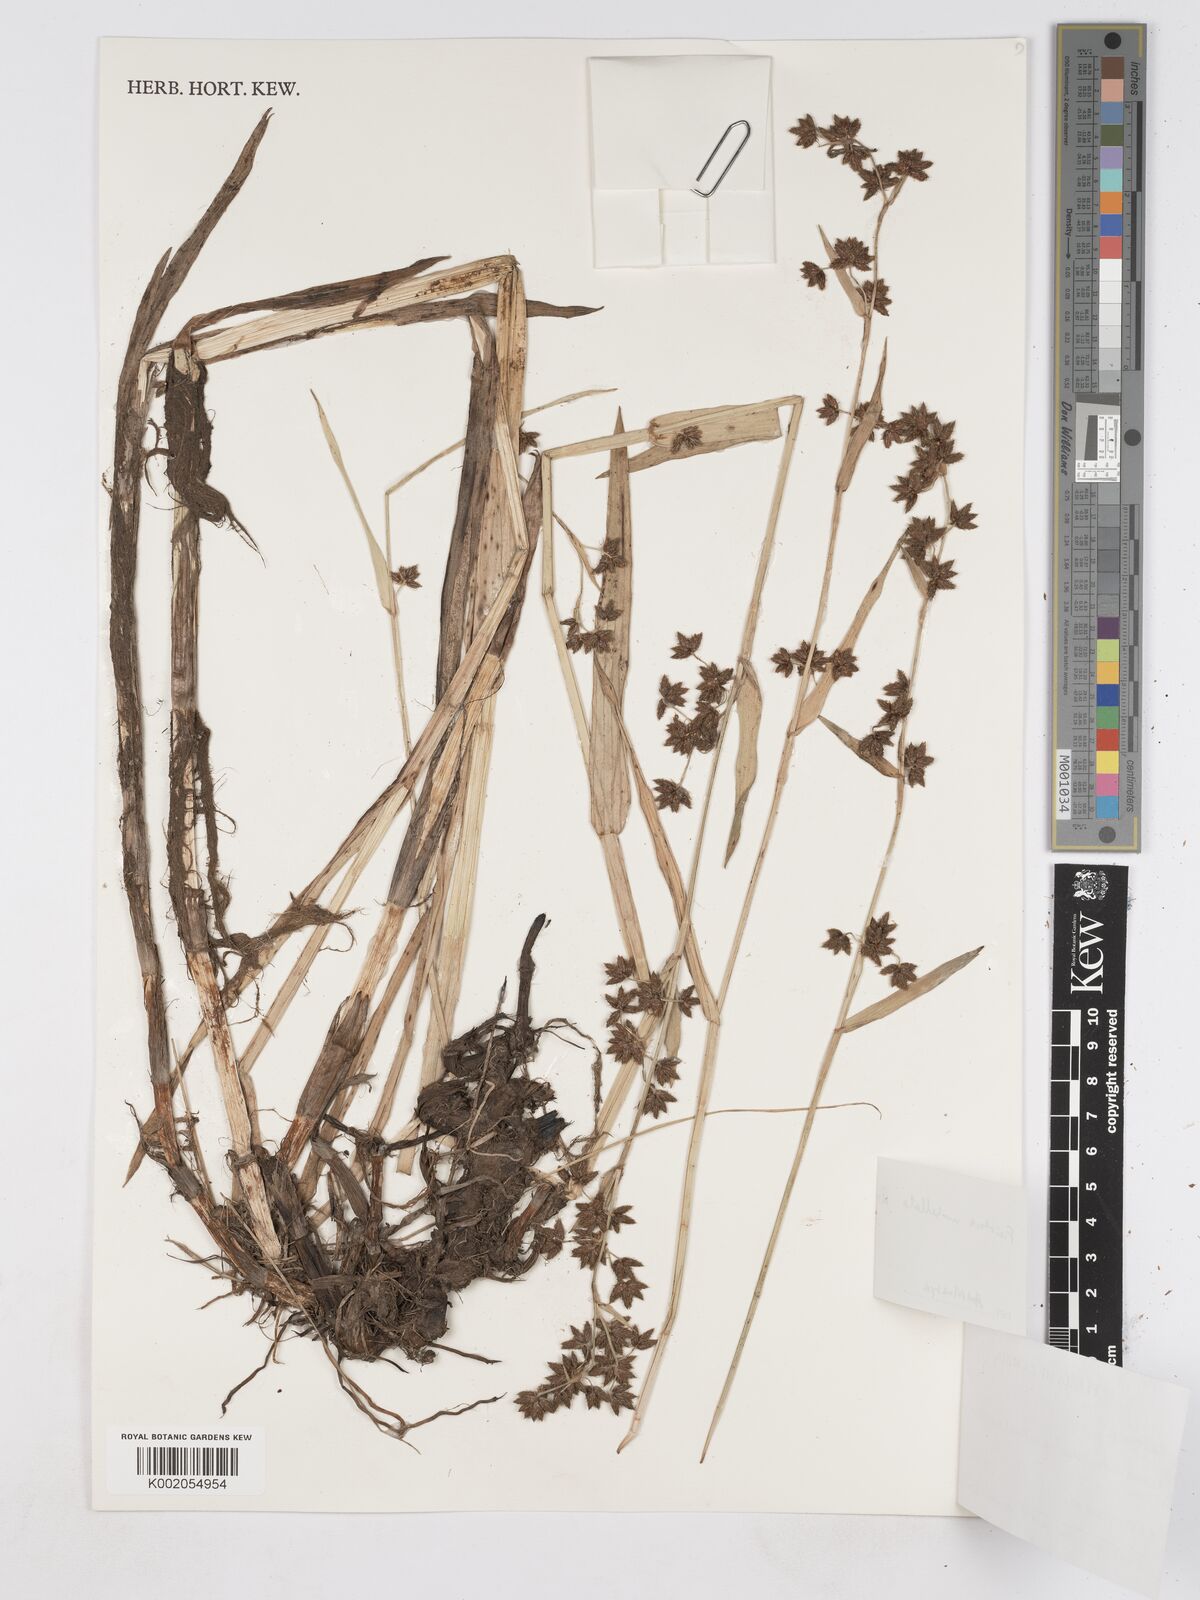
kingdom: Plantae
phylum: Tracheophyta
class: Liliopsida
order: Poales
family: Cyperaceae
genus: Fuirena
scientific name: Fuirena umbellata
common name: Yefen
